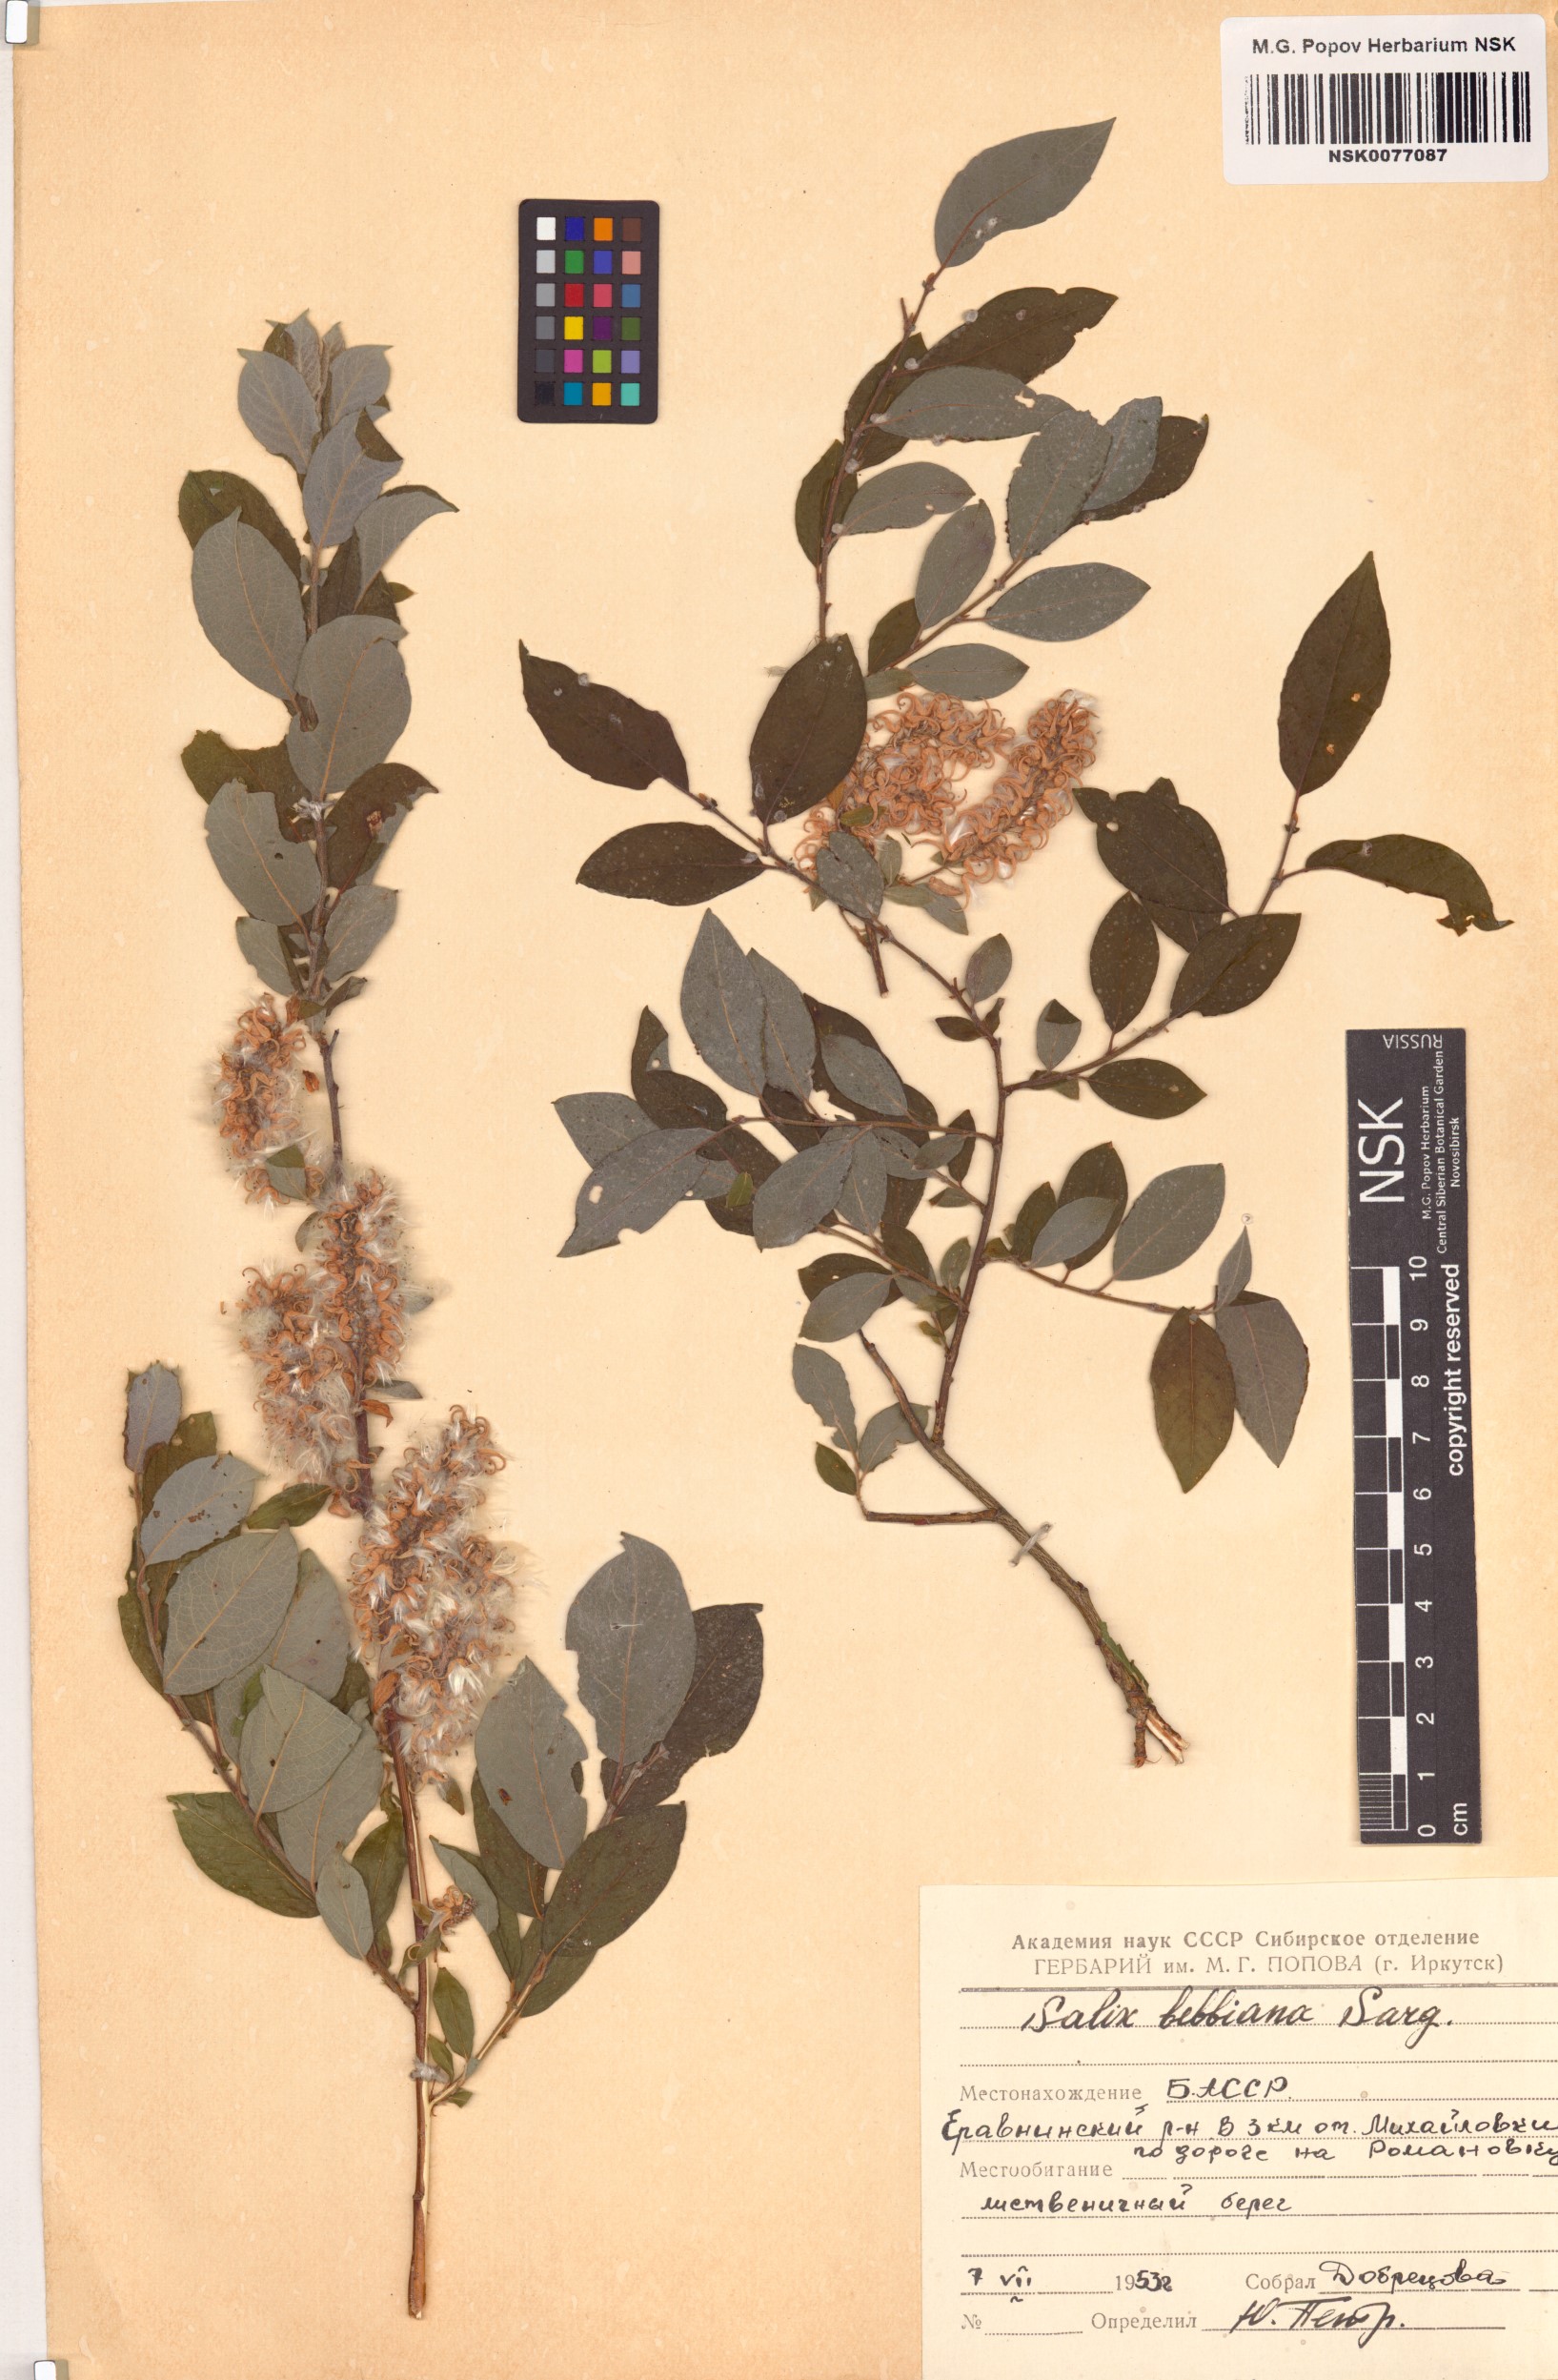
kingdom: Plantae
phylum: Tracheophyta
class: Magnoliopsida
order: Malpighiales
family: Salicaceae
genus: Salix
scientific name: Salix bebbiana
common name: Bebb's willow
